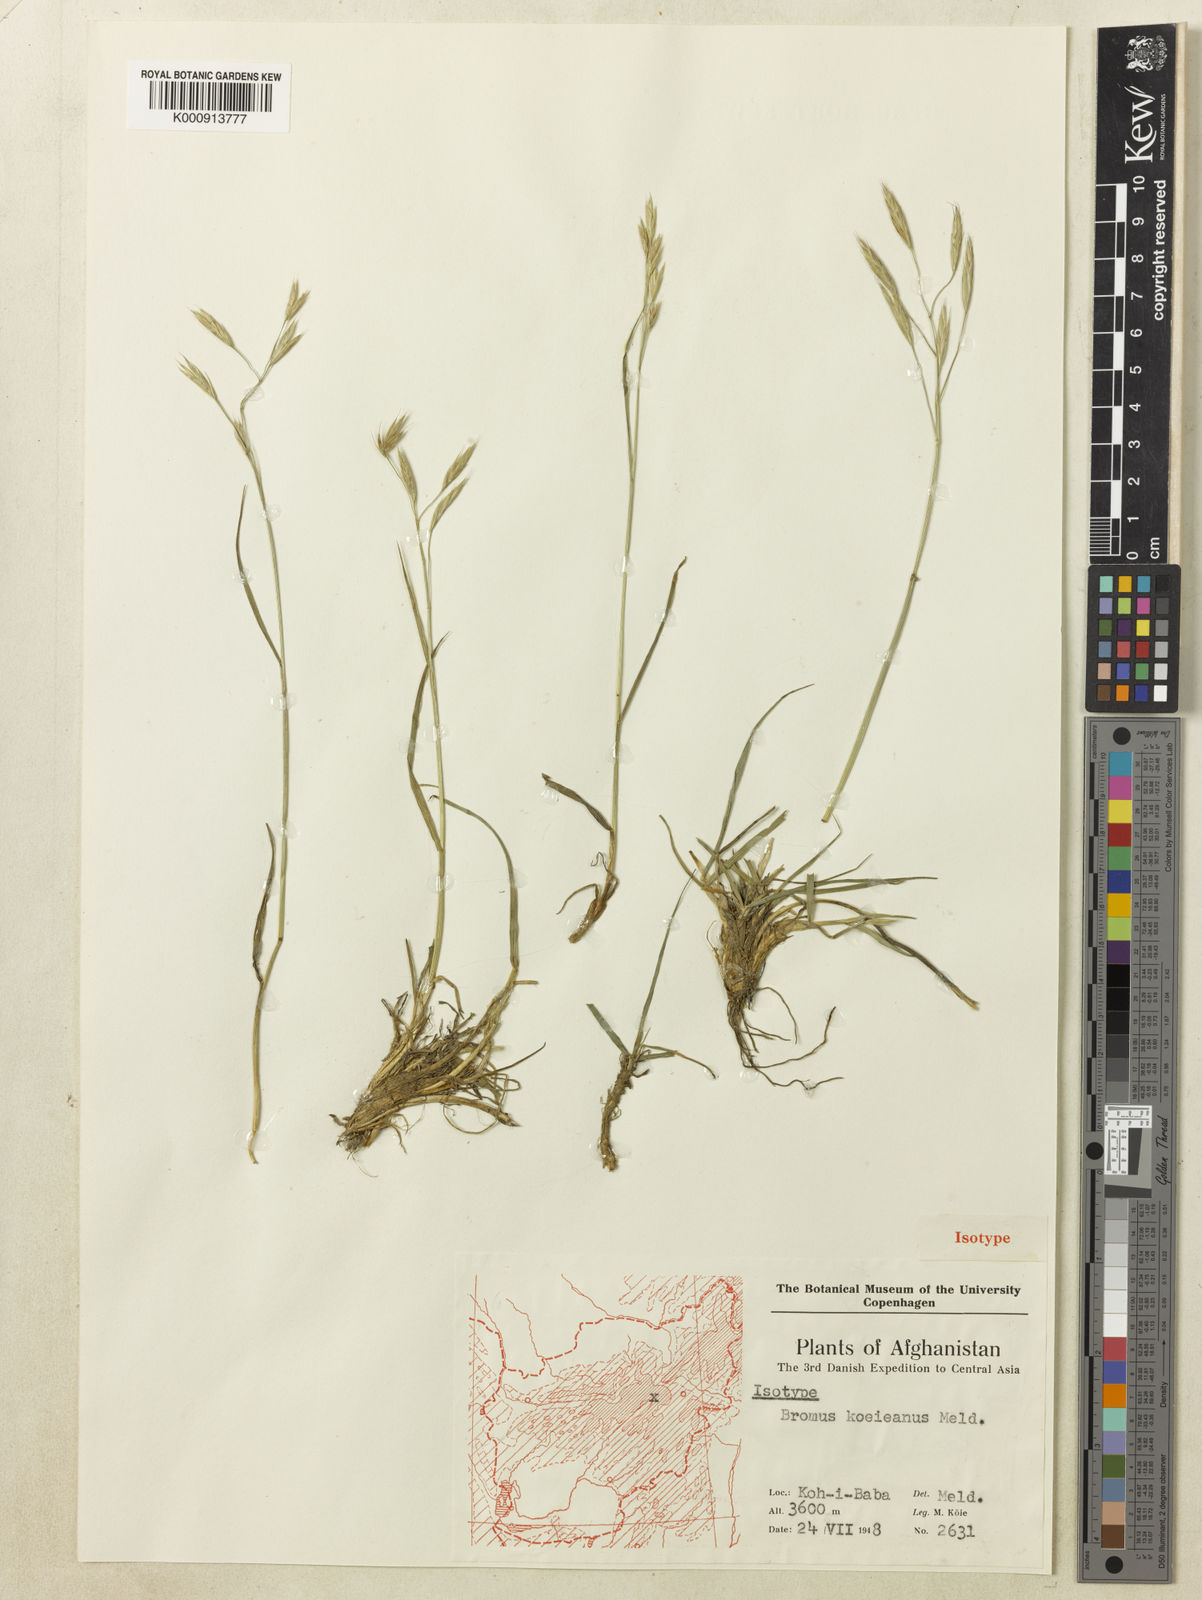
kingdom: Plantae
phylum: Tracheophyta
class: Liliopsida
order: Poales
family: Poaceae
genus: Bromus
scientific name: Bromus koeieanus
